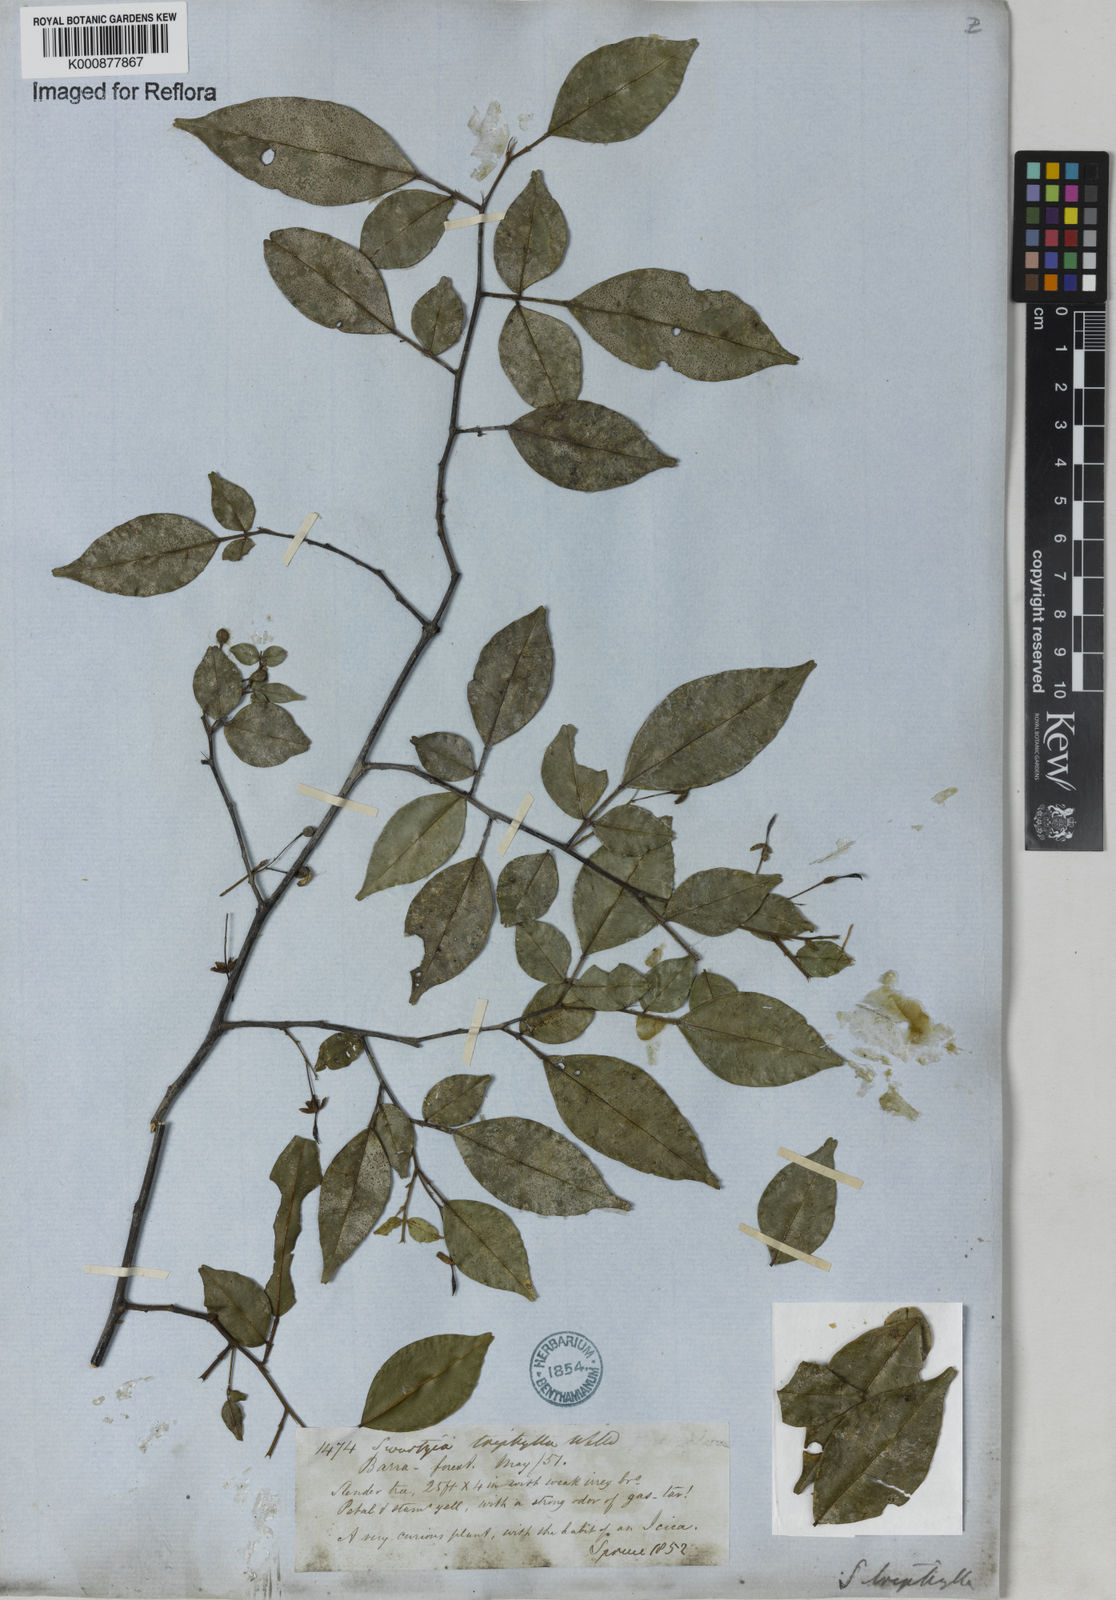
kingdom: Plantae
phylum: Tracheophyta
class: Magnoliopsida
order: Fabales
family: Fabaceae
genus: Swartzia
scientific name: Swartzia arborescens
